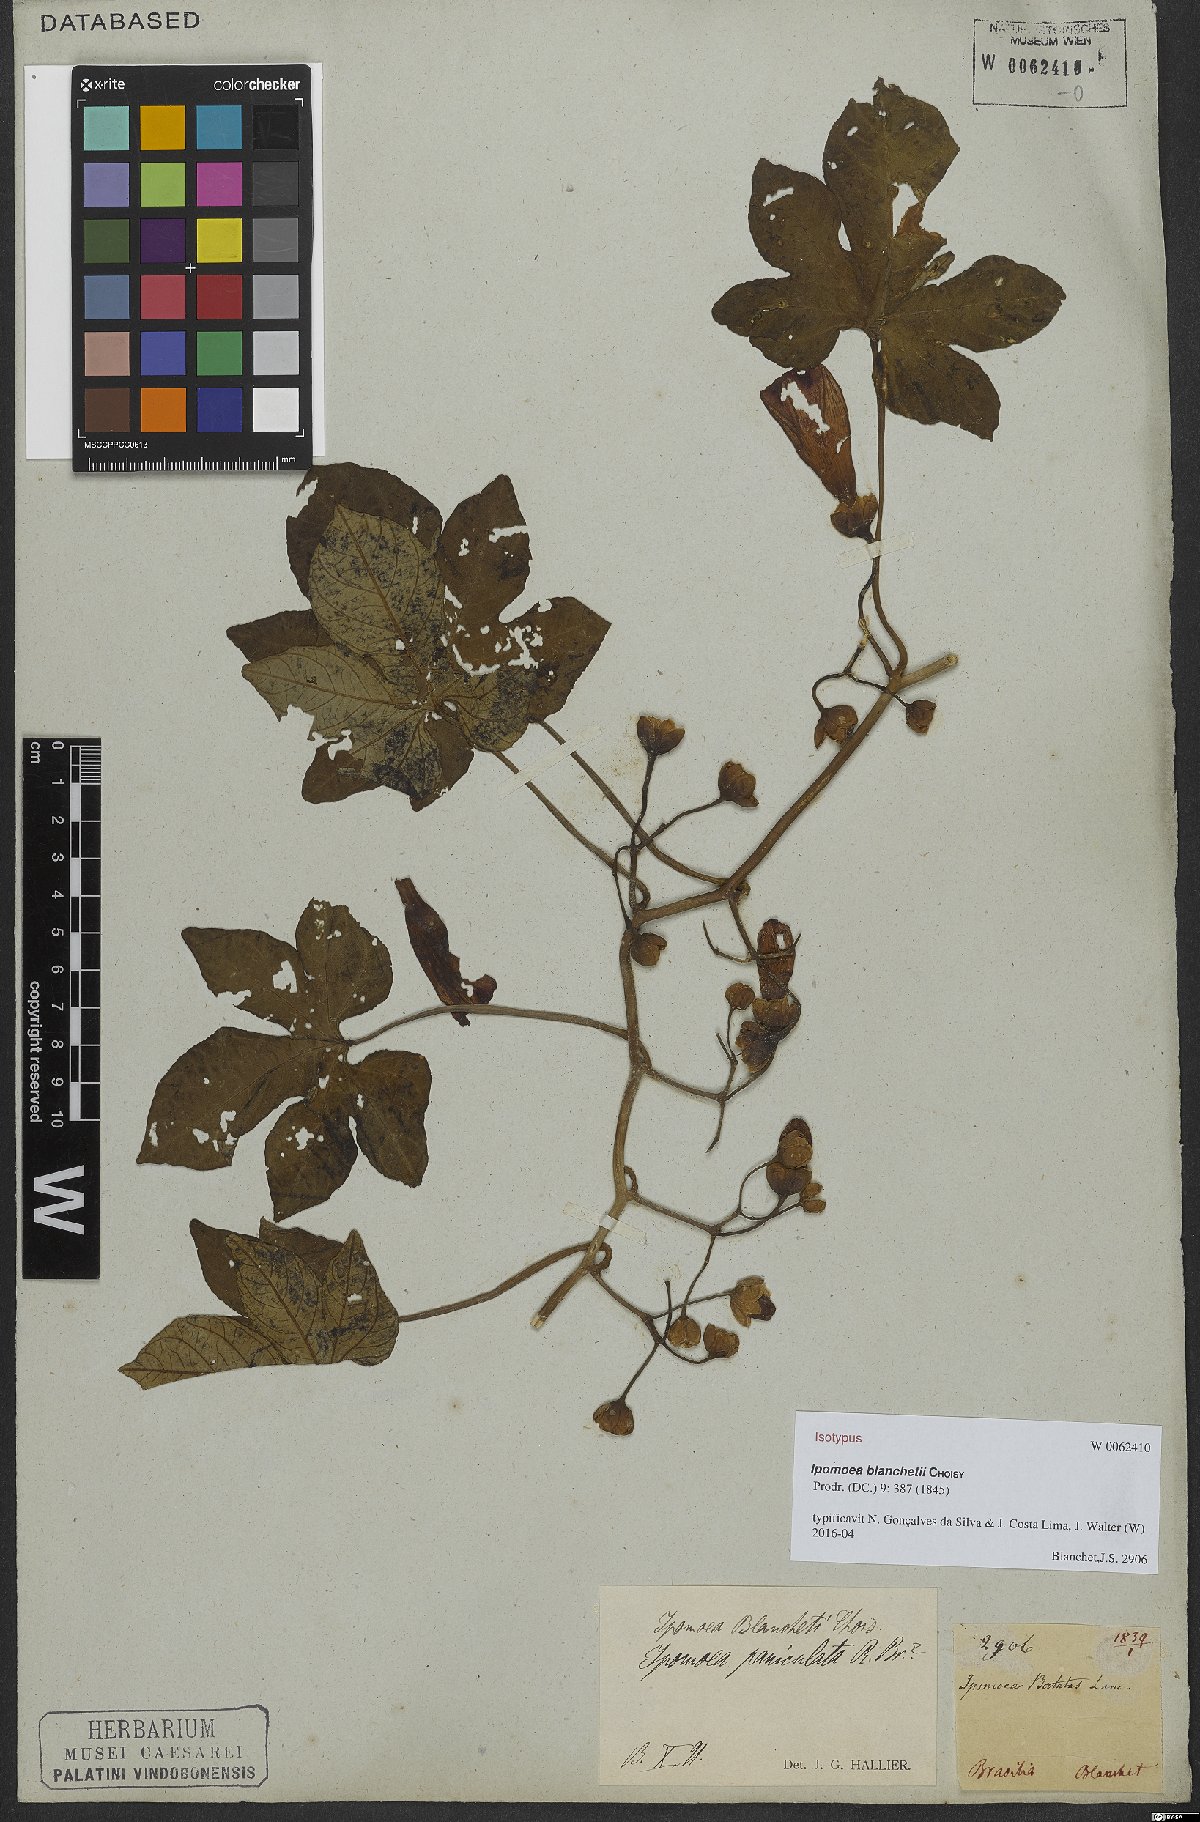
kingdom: Plantae
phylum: Tracheophyta
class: Magnoliopsida
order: Solanales
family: Convolvulaceae
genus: Ipomoea
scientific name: Ipomoea blanchetii
